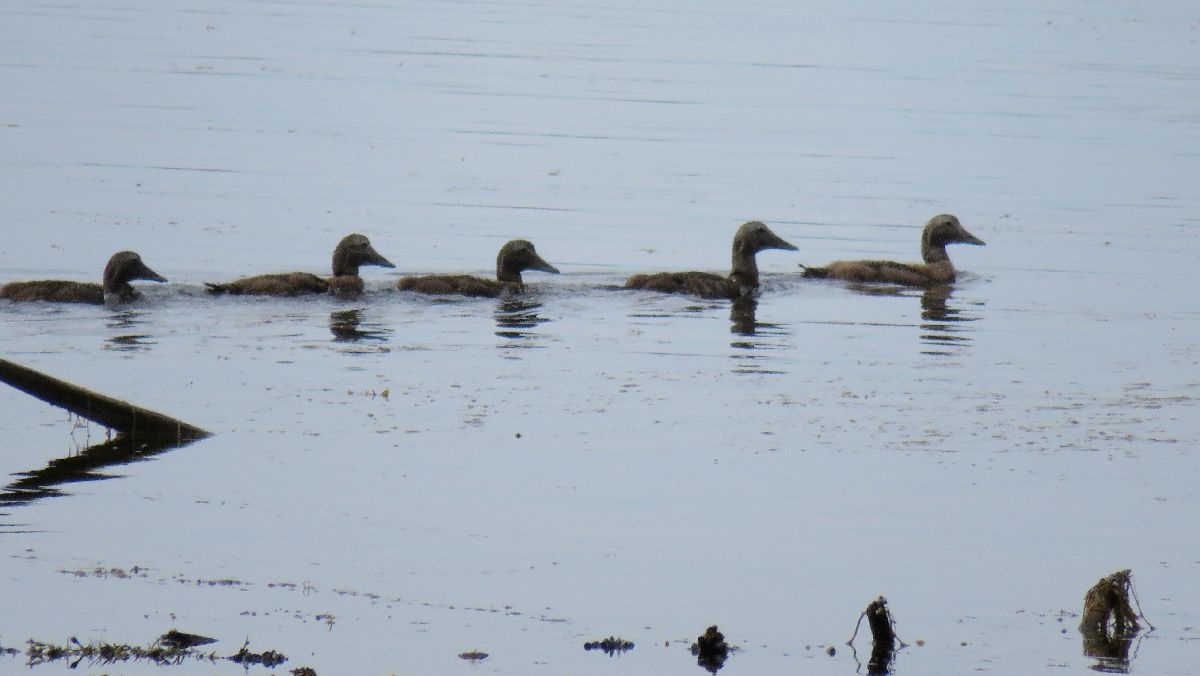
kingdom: Animalia
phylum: Chordata
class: Aves
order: Anseriformes
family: Anatidae
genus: Somateria
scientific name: Somateria mollissima
